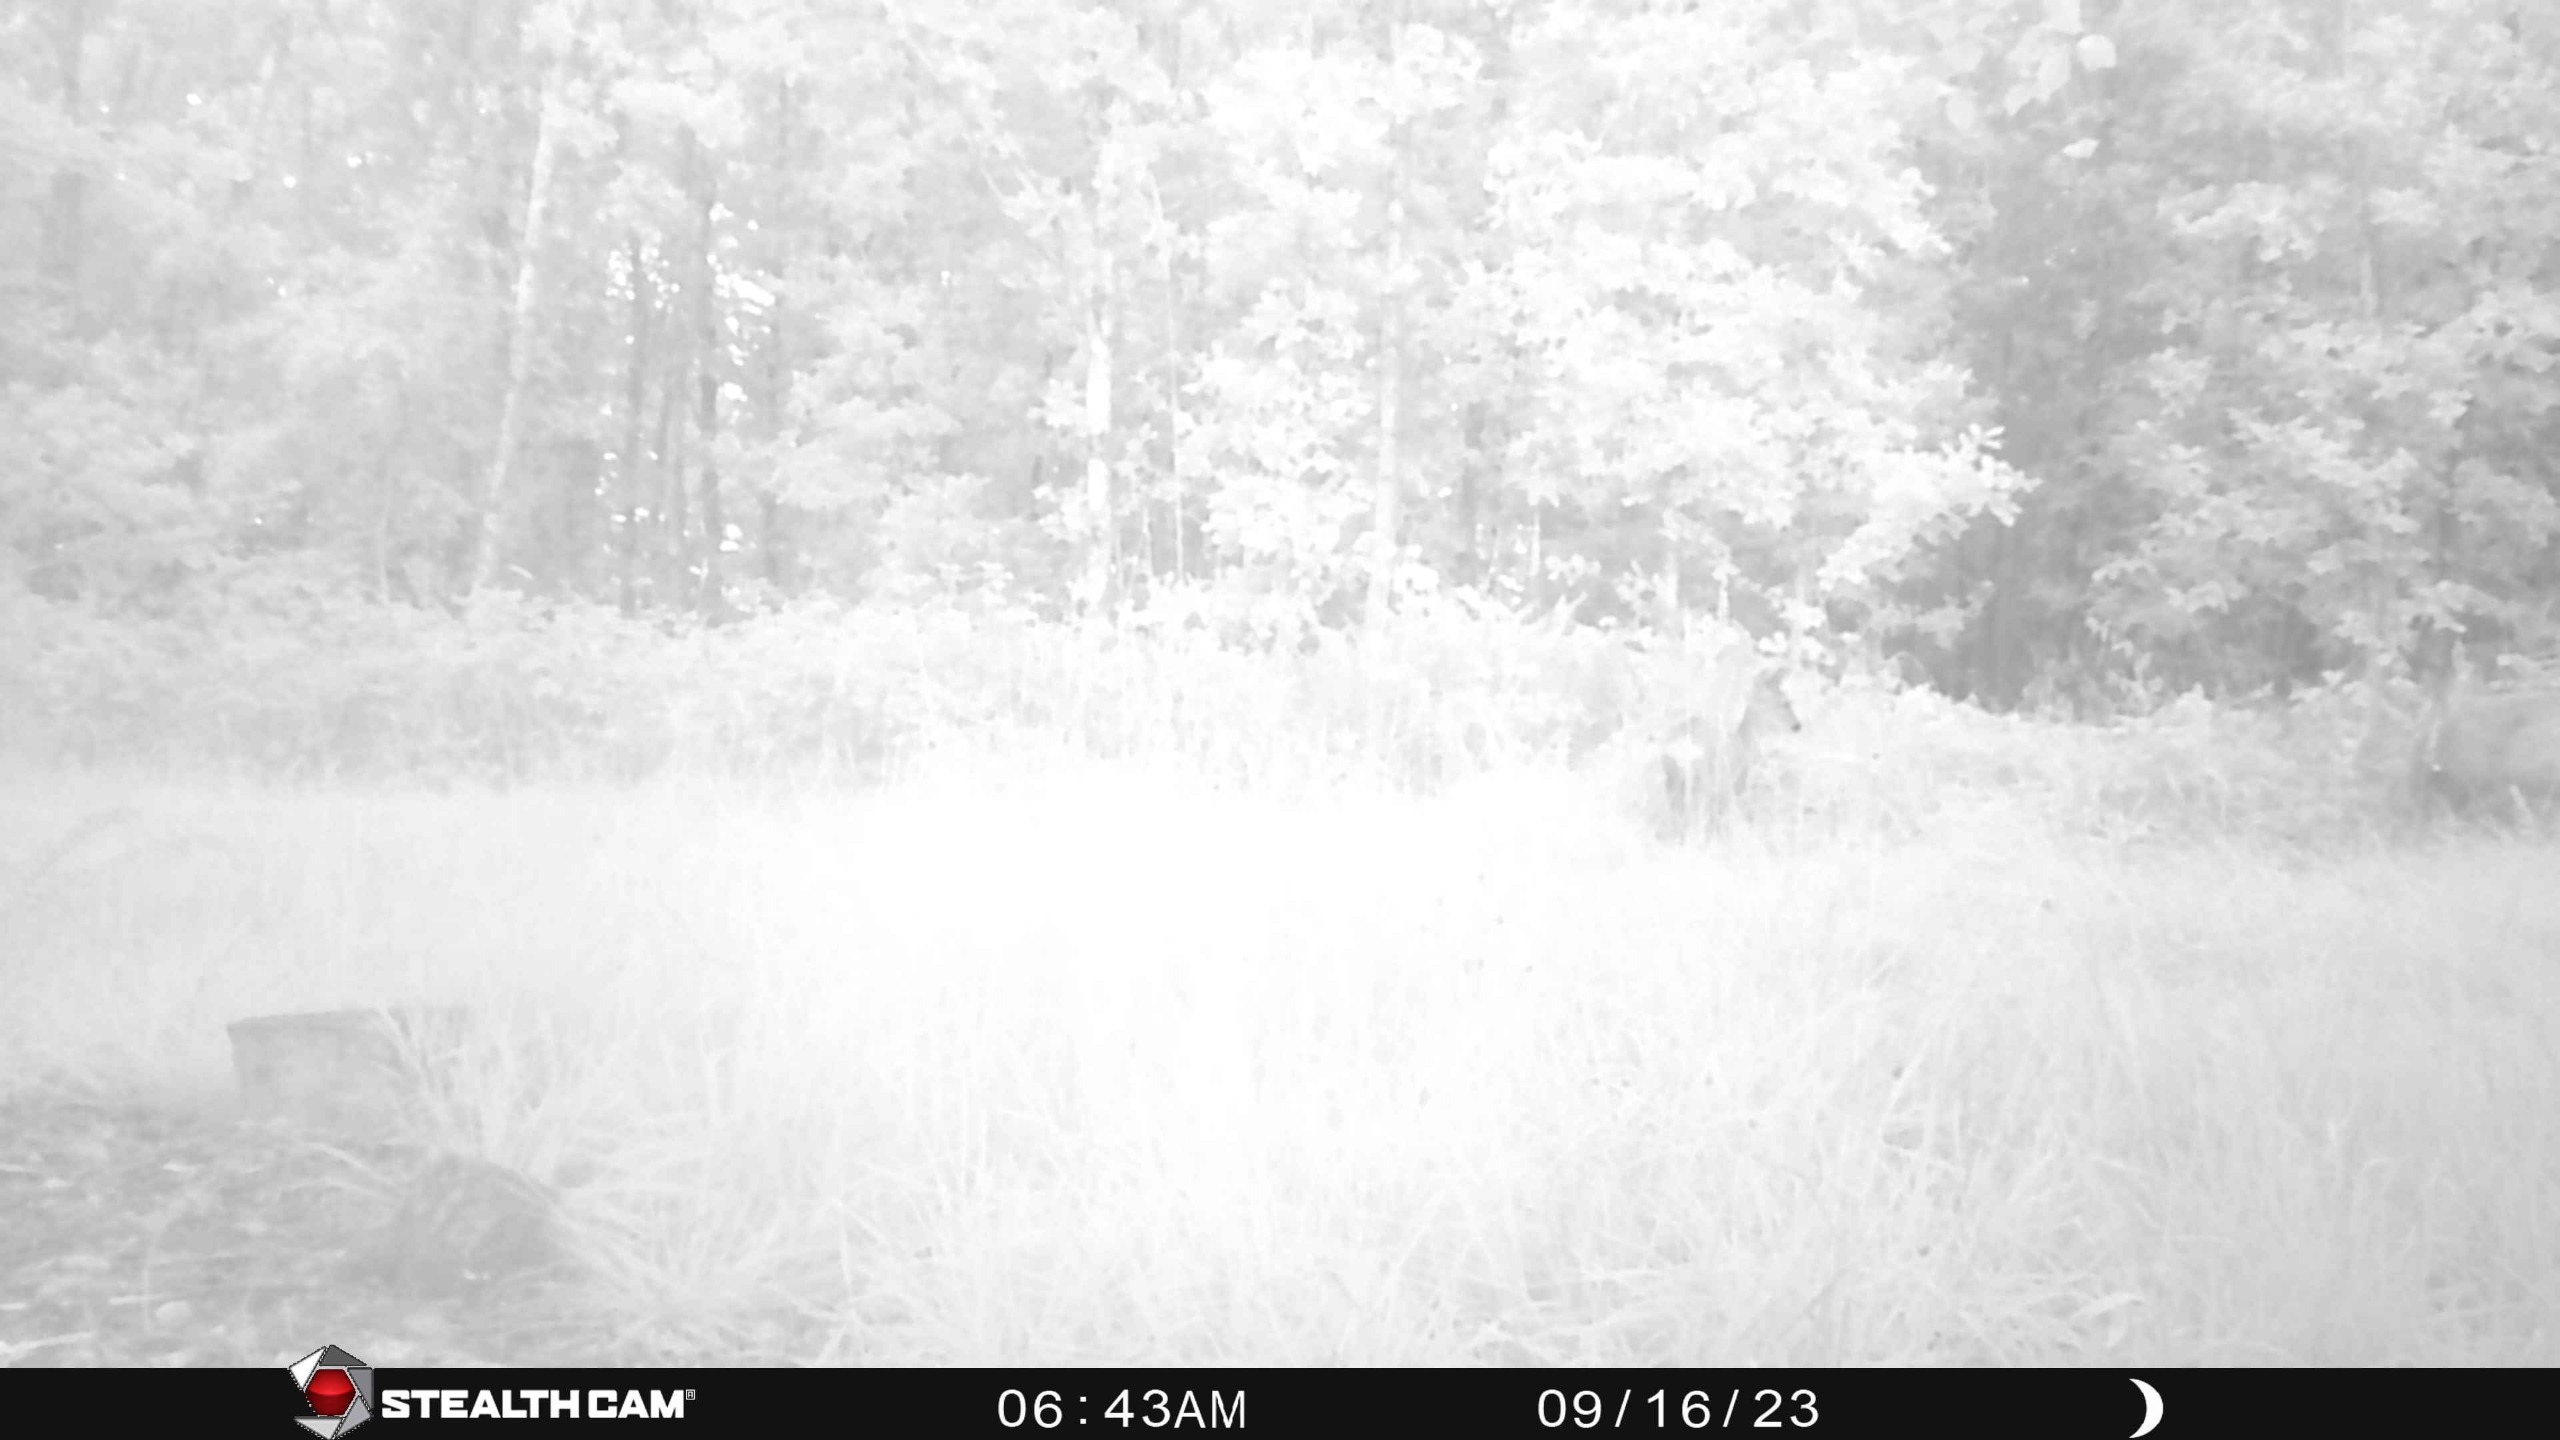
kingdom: Animalia
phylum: Chordata
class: Mammalia
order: Artiodactyla
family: Cervidae
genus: Capreolus
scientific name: Capreolus capreolus
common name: Rådyr
